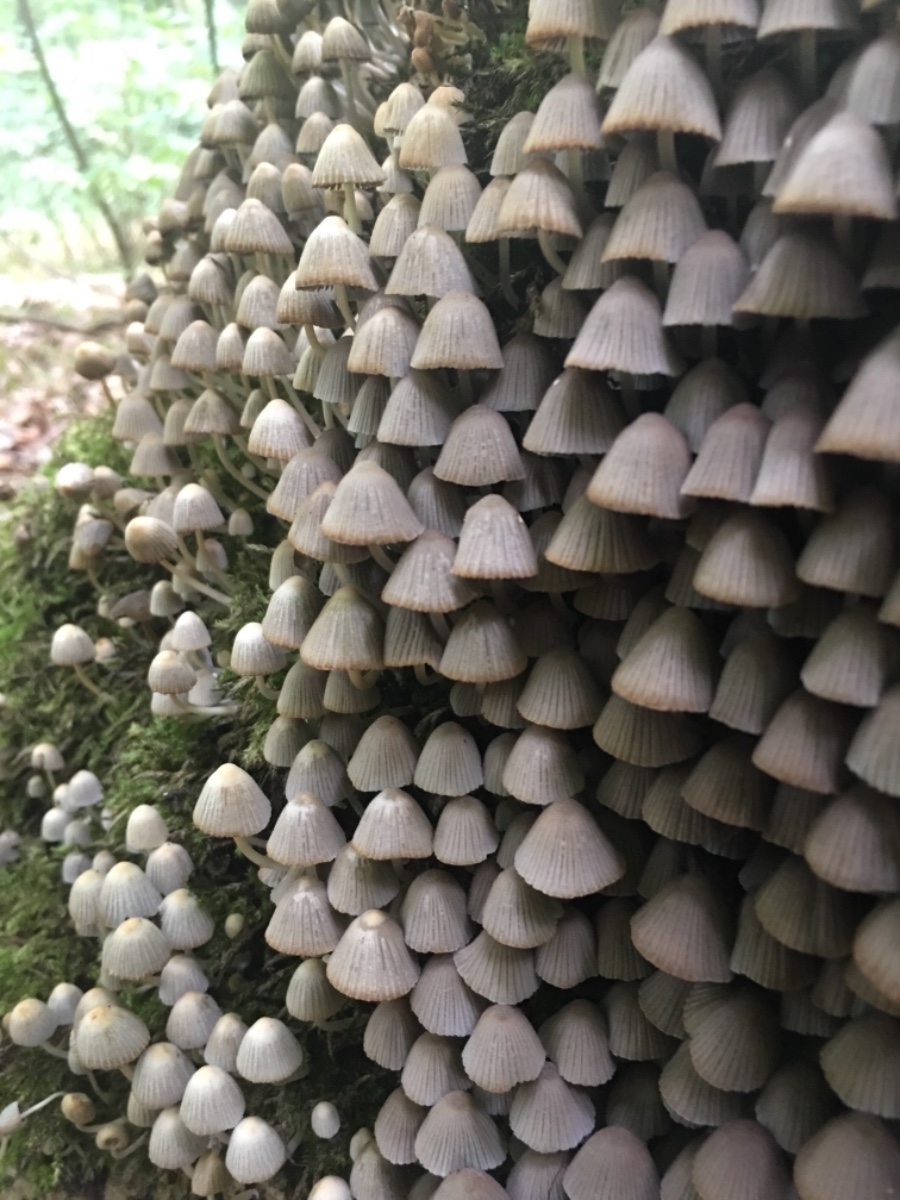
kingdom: Fungi
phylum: Basidiomycota
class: Agaricomycetes
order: Agaricales
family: Psathyrellaceae
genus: Coprinellus
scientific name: Coprinellus disseminatus
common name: bredsået blækhat
